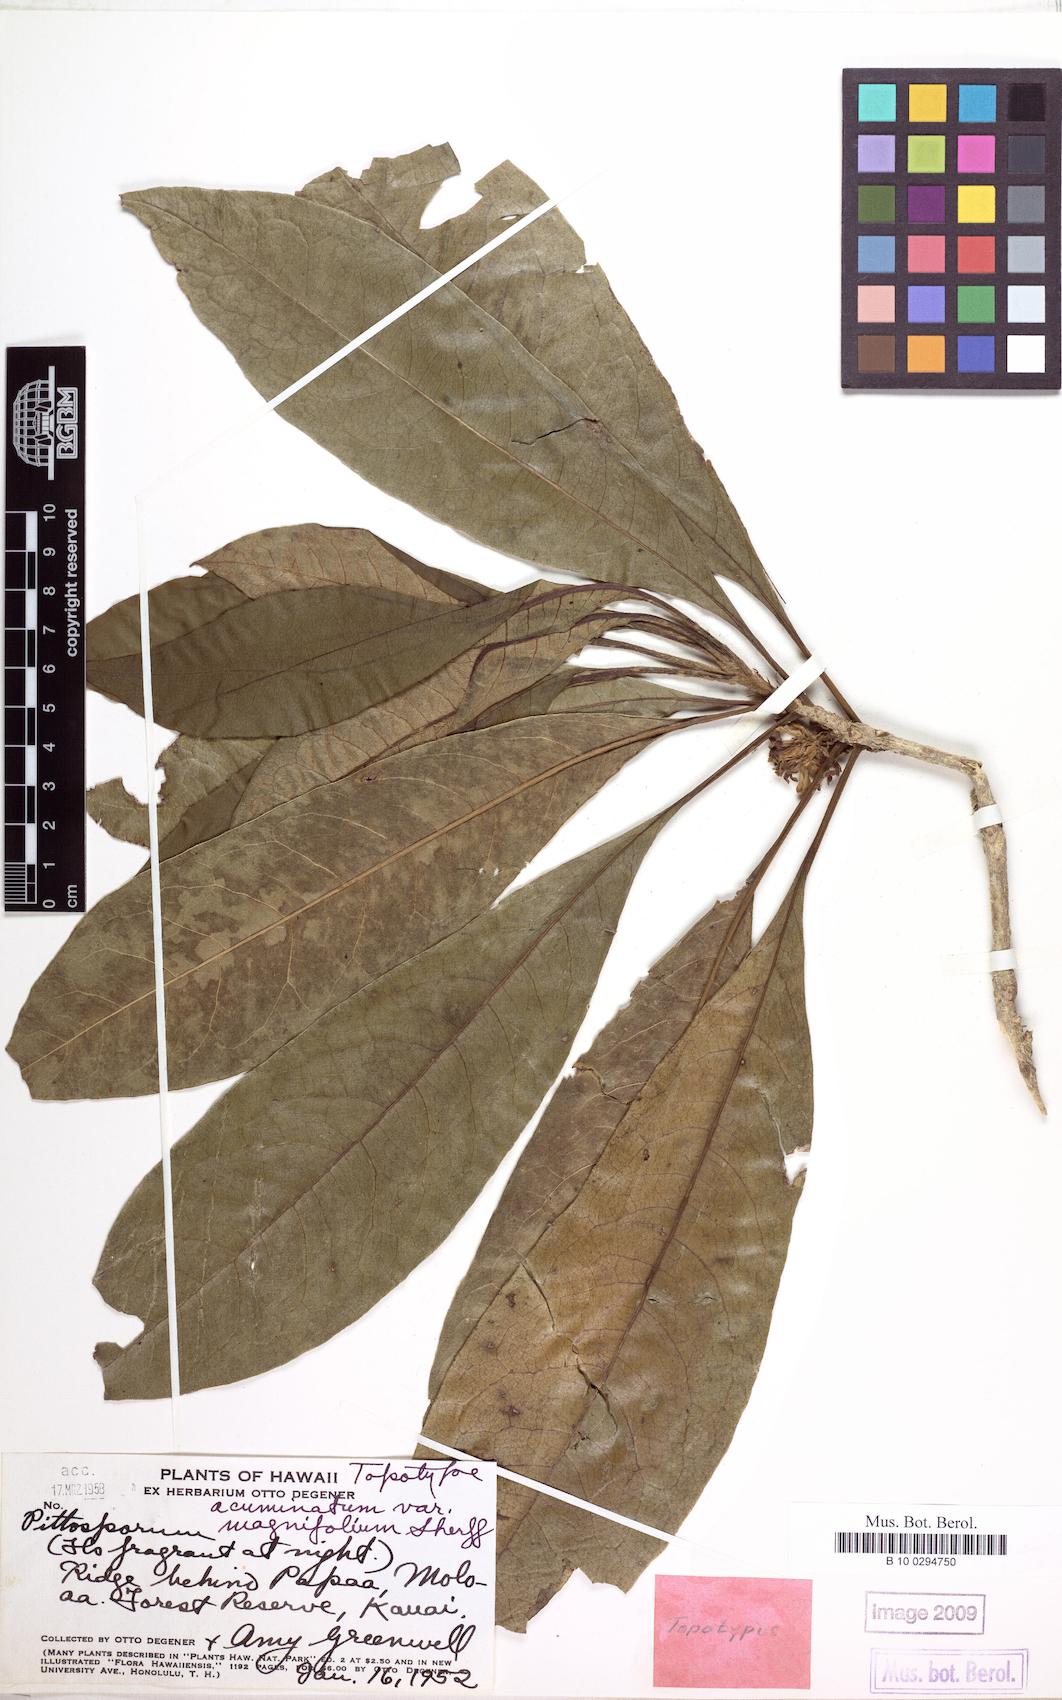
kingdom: Plantae
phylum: Tracheophyta
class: Magnoliopsida
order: Apiales
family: Pittosporaceae
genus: Pittosporum
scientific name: Pittosporum glabrum
